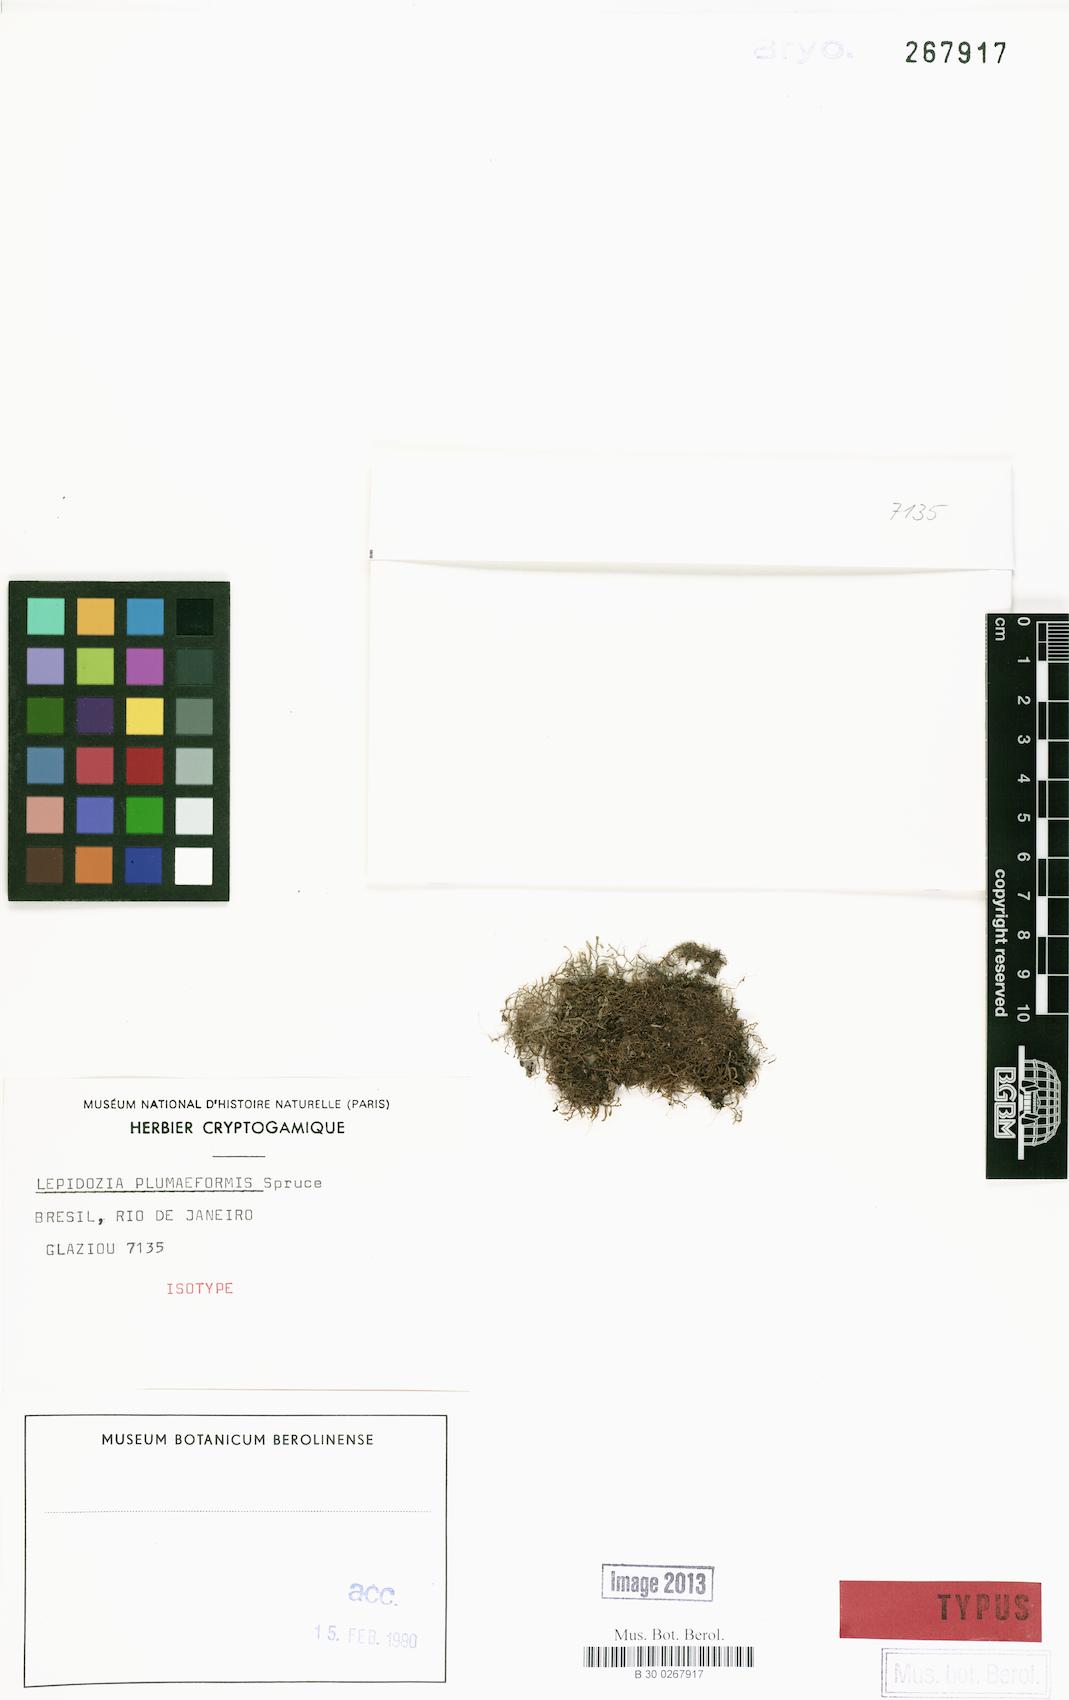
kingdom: Plantae
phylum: Marchantiophyta
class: Jungermanniopsida
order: Jungermanniales
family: Lepidoziaceae
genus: Lepidozia
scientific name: Lepidozia coilophylla
